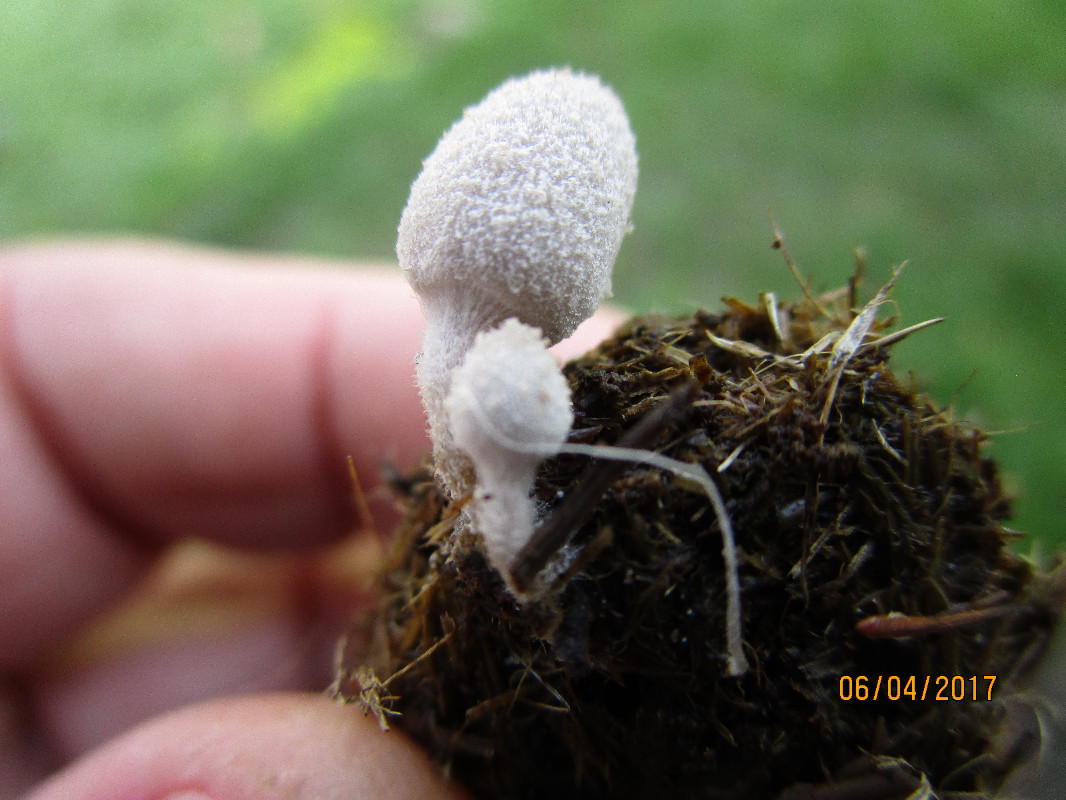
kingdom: Fungi
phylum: Basidiomycota
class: Agaricomycetes
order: Agaricales
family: Psathyrellaceae
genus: Coprinopsis
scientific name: Coprinopsis nivea
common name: snehvid blækhat
